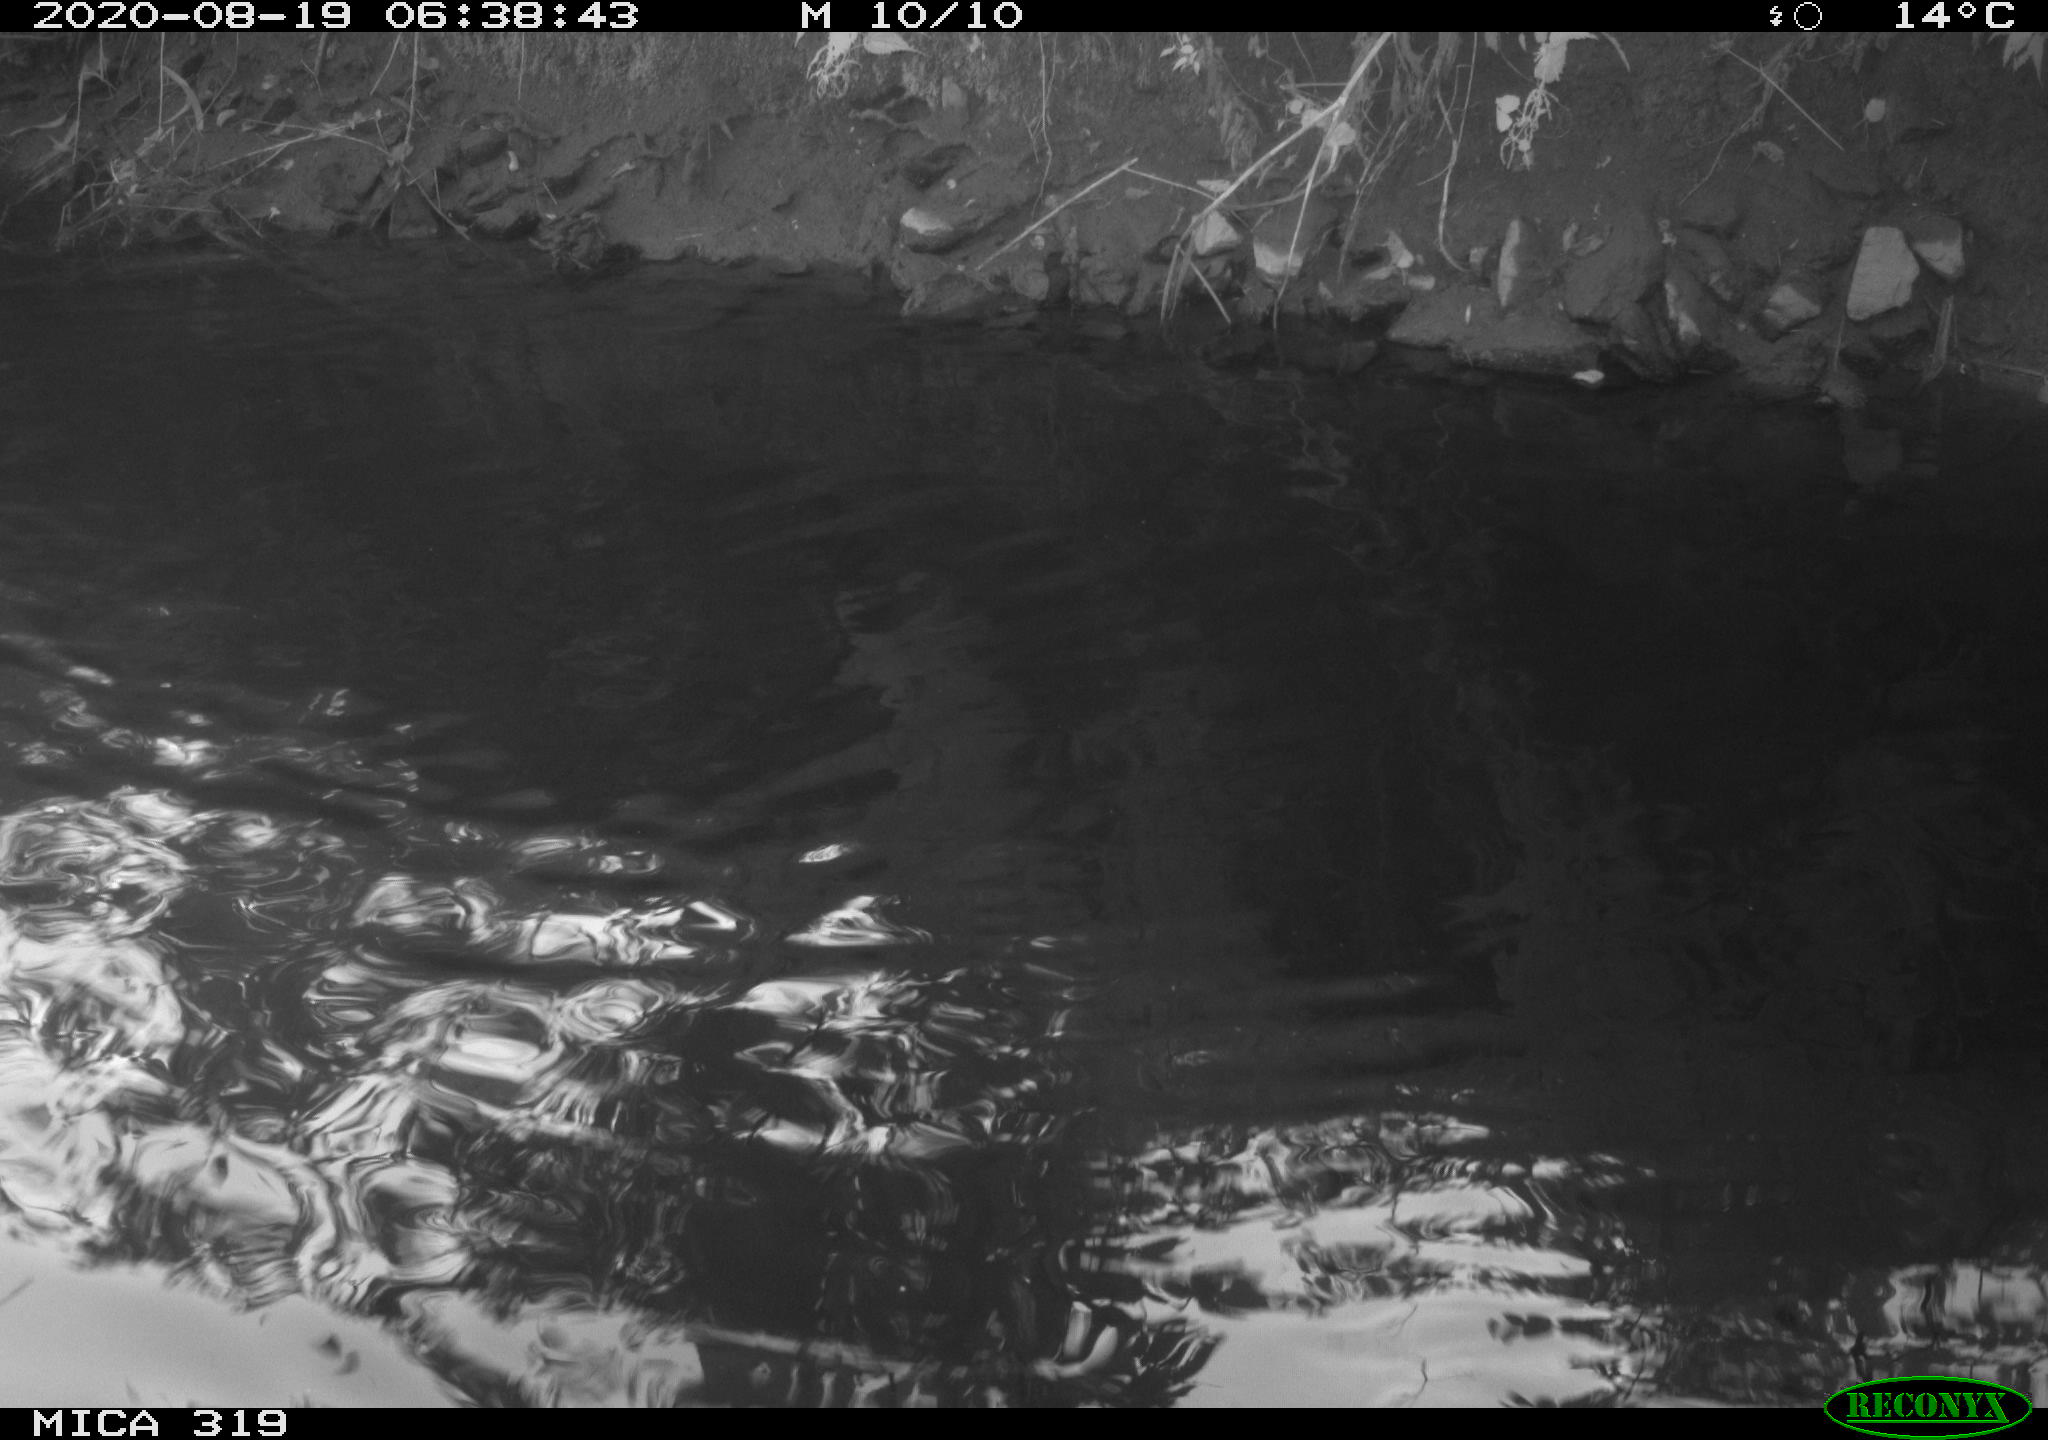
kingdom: Animalia
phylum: Chordata
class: Aves
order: Anseriformes
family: Anatidae
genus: Anas
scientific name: Anas platyrhynchos
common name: Mallard
